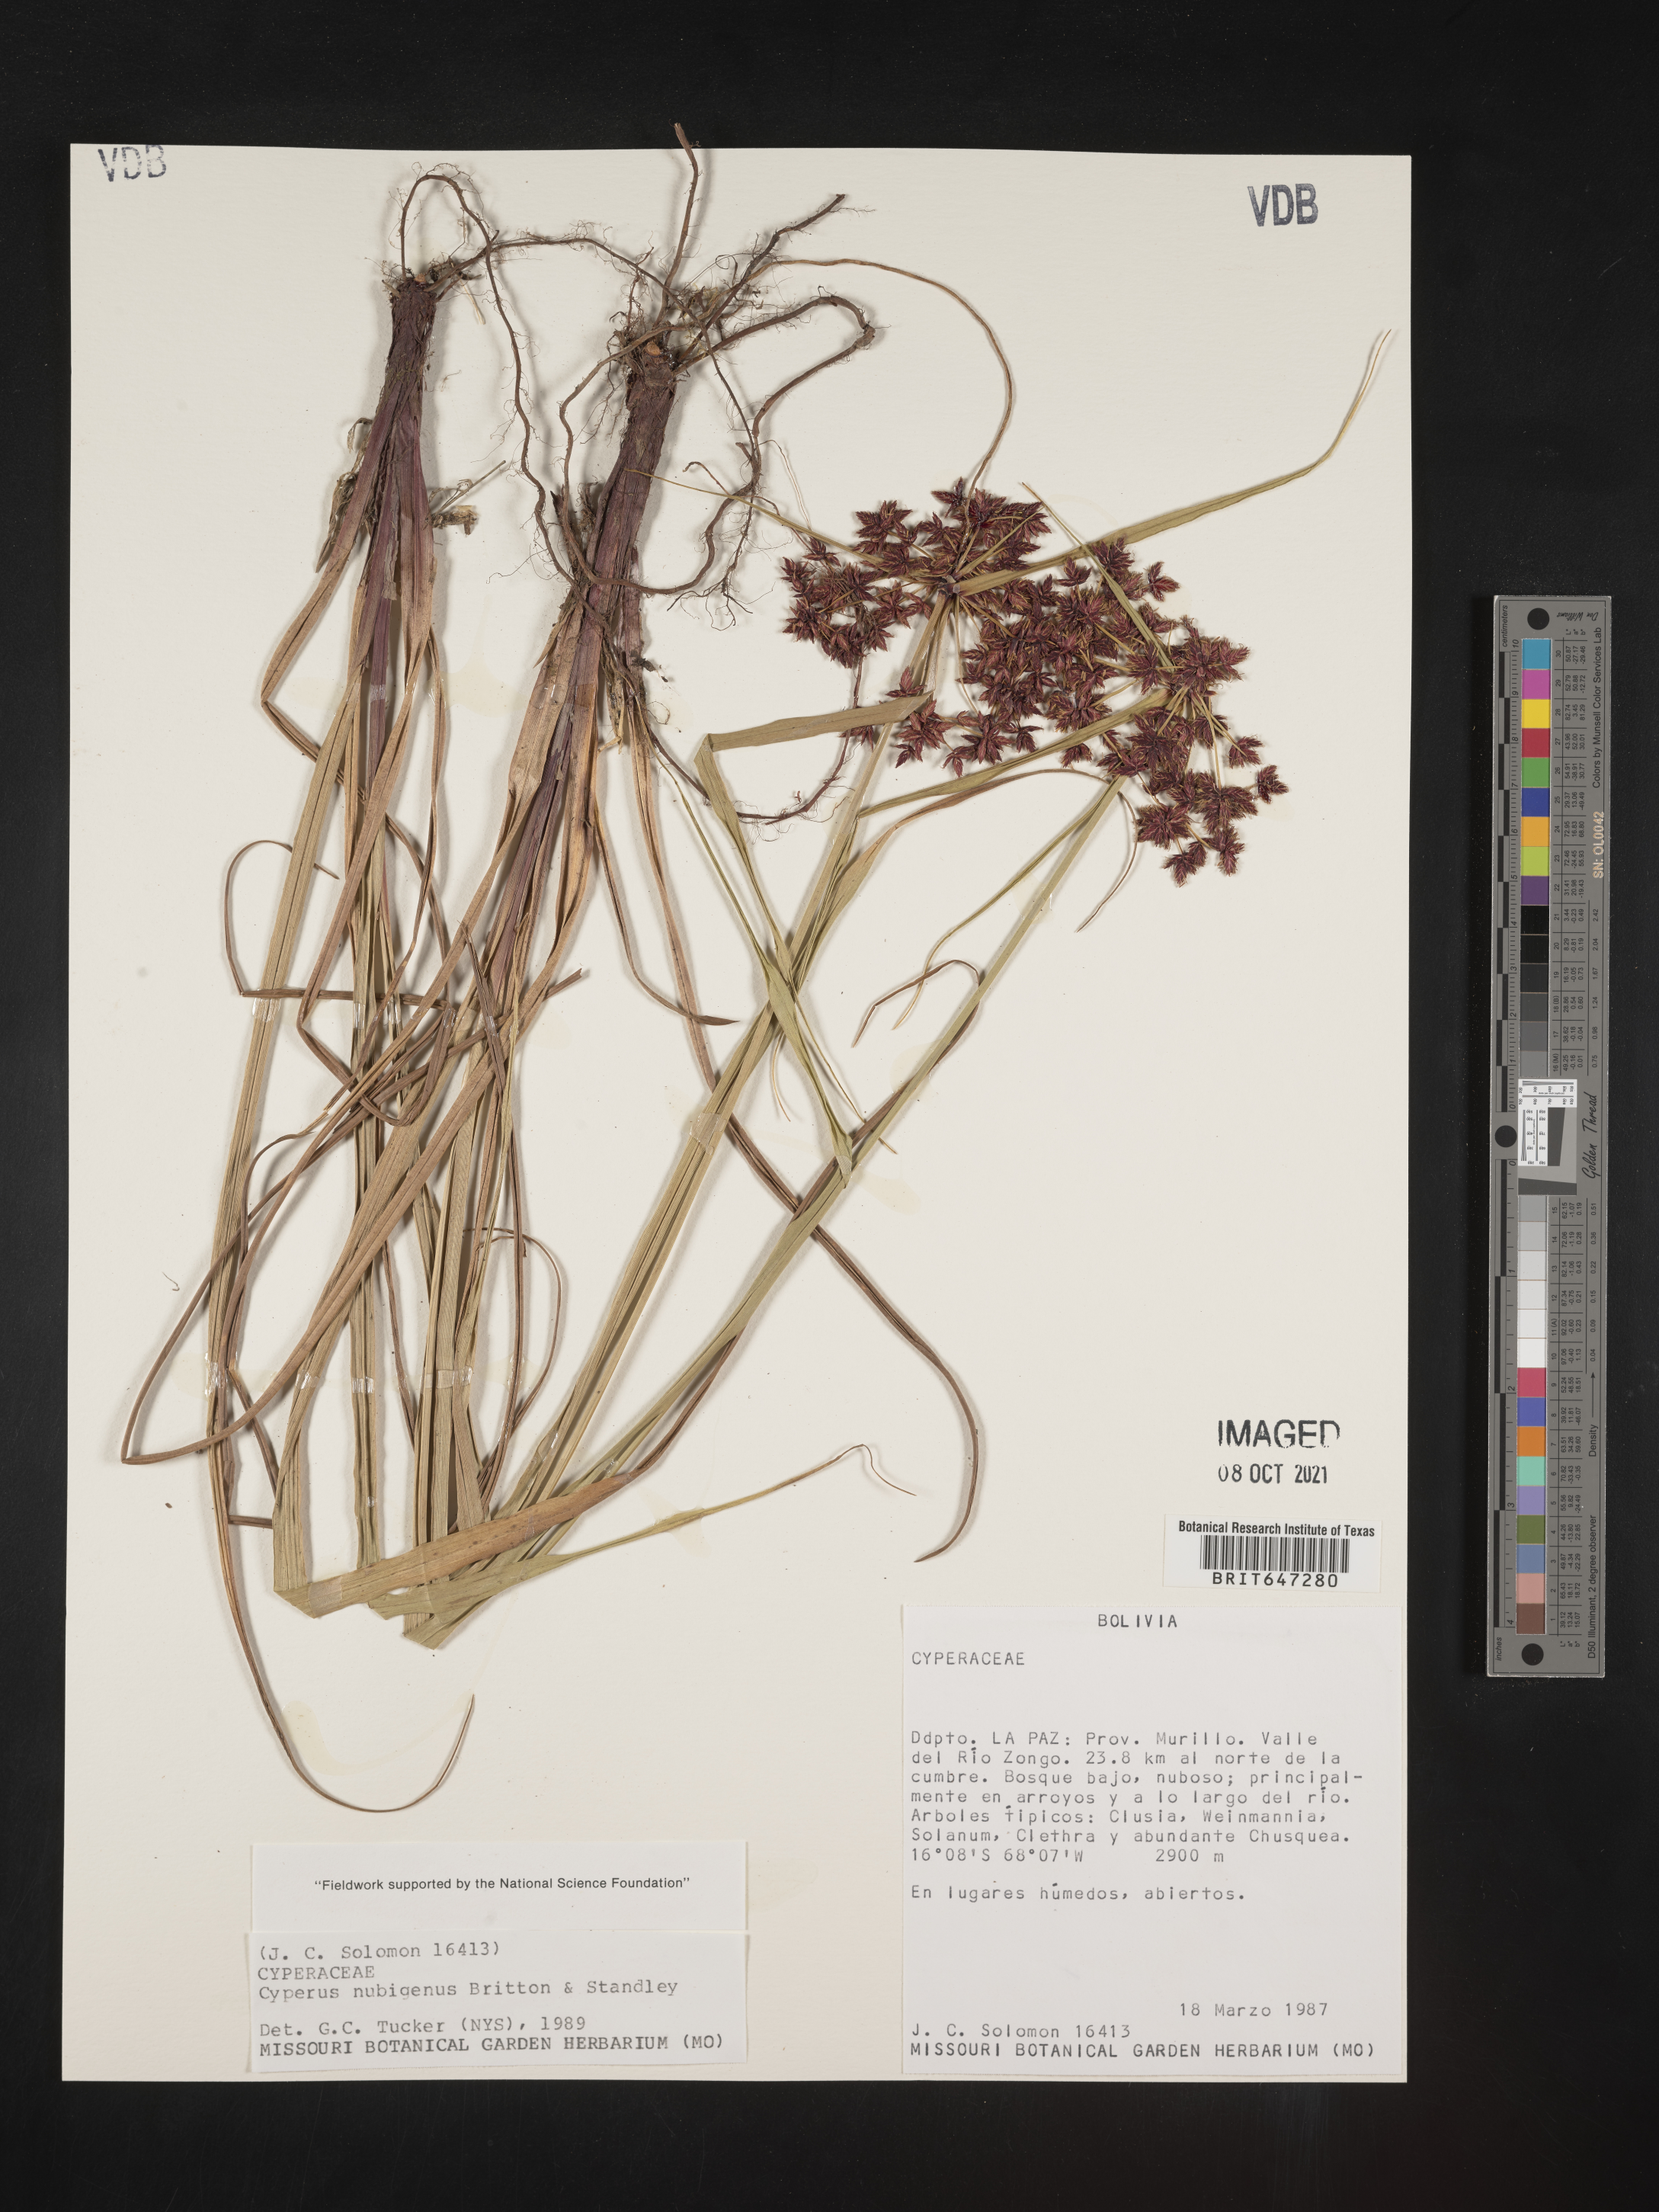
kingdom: Plantae
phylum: Tracheophyta
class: Liliopsida
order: Poales
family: Cyperaceae
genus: Cyperus
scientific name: Cyperus tabina
